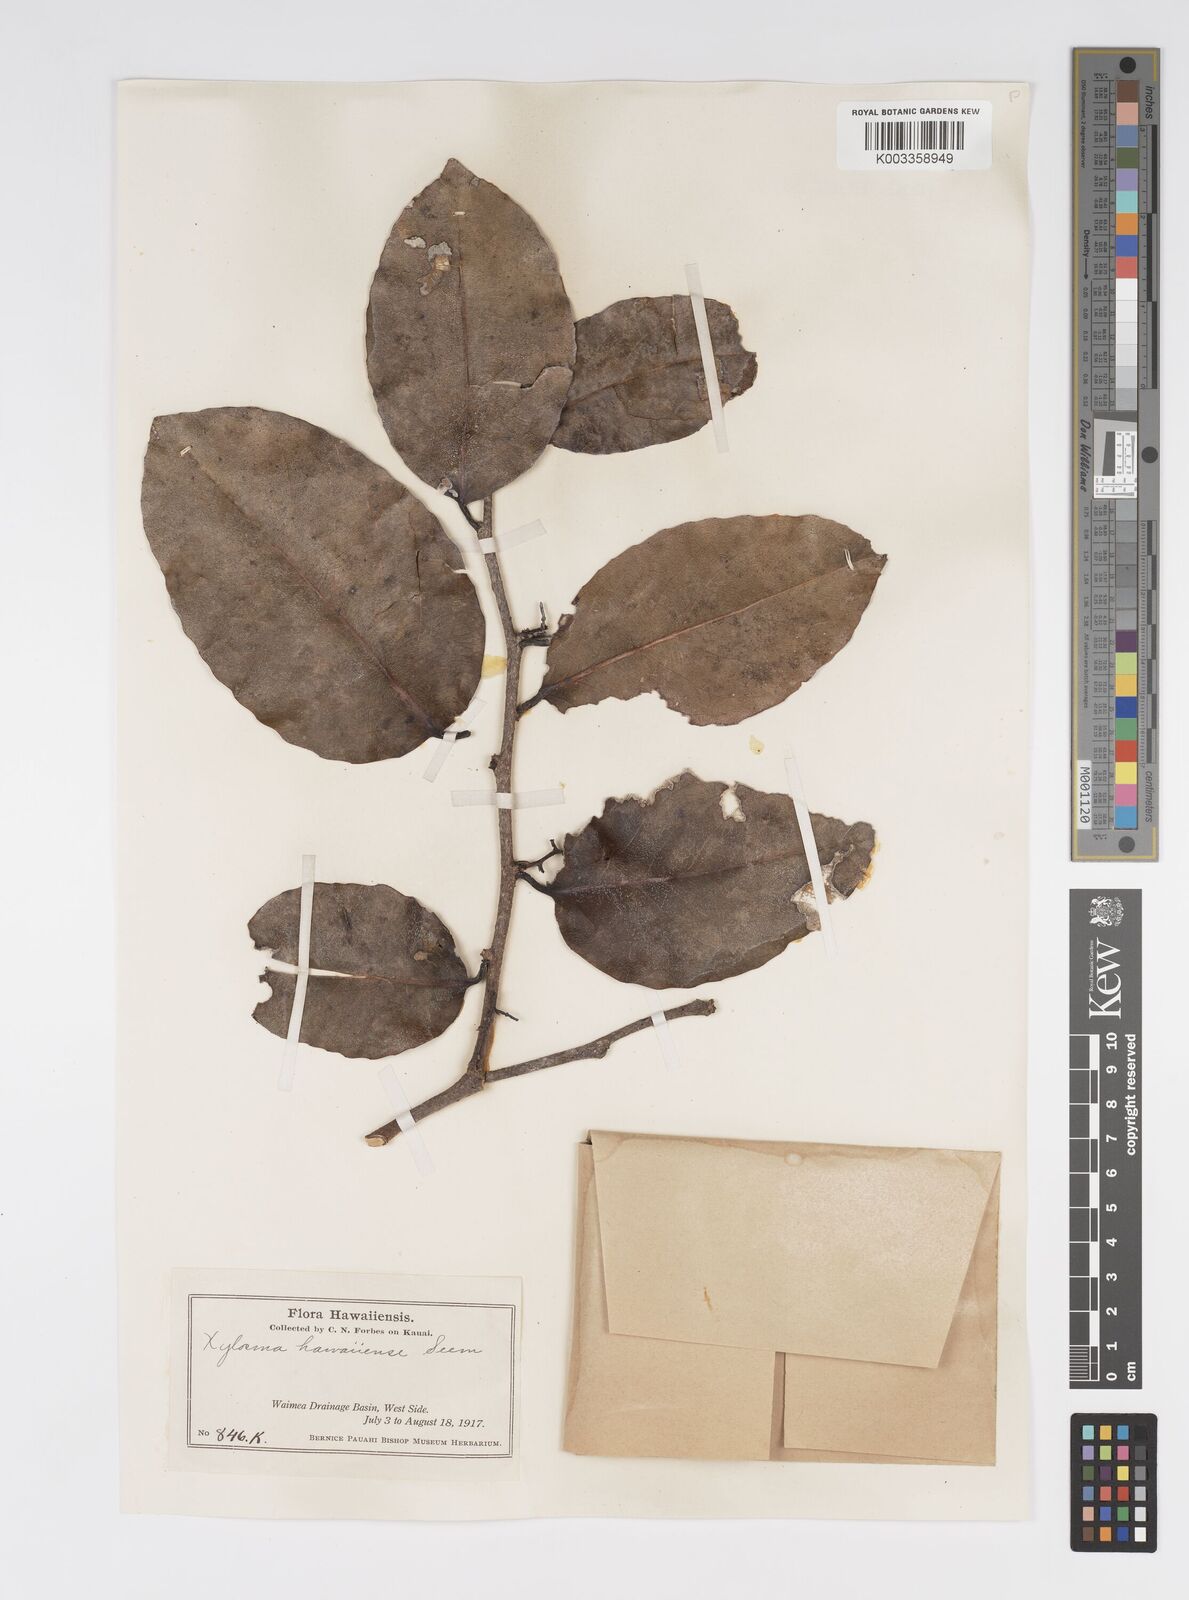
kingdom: Plantae
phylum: Tracheophyta
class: Magnoliopsida
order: Malpighiales
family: Salicaceae
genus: Xylosma
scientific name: Xylosma hawaiense
